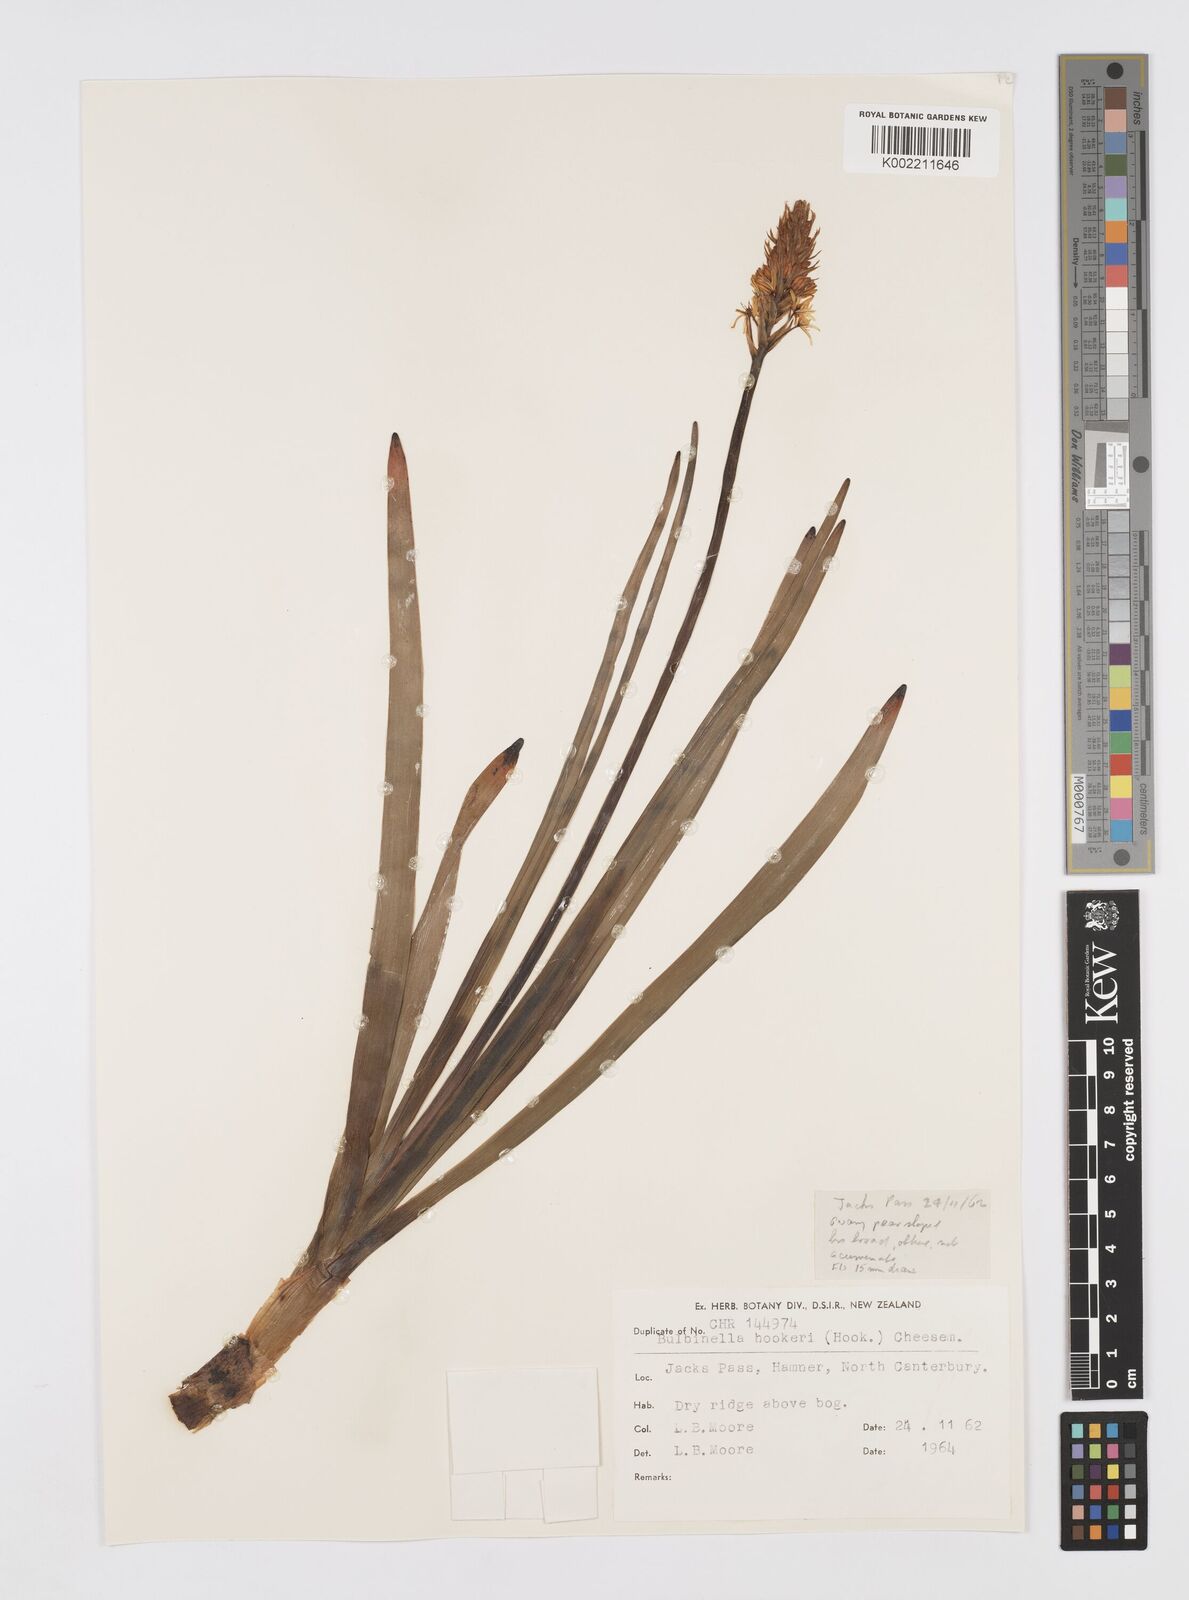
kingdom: Plantae
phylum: Tracheophyta
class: Liliopsida
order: Asparagales
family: Asphodelaceae
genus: Bulbinella
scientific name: Bulbinella hookeri
